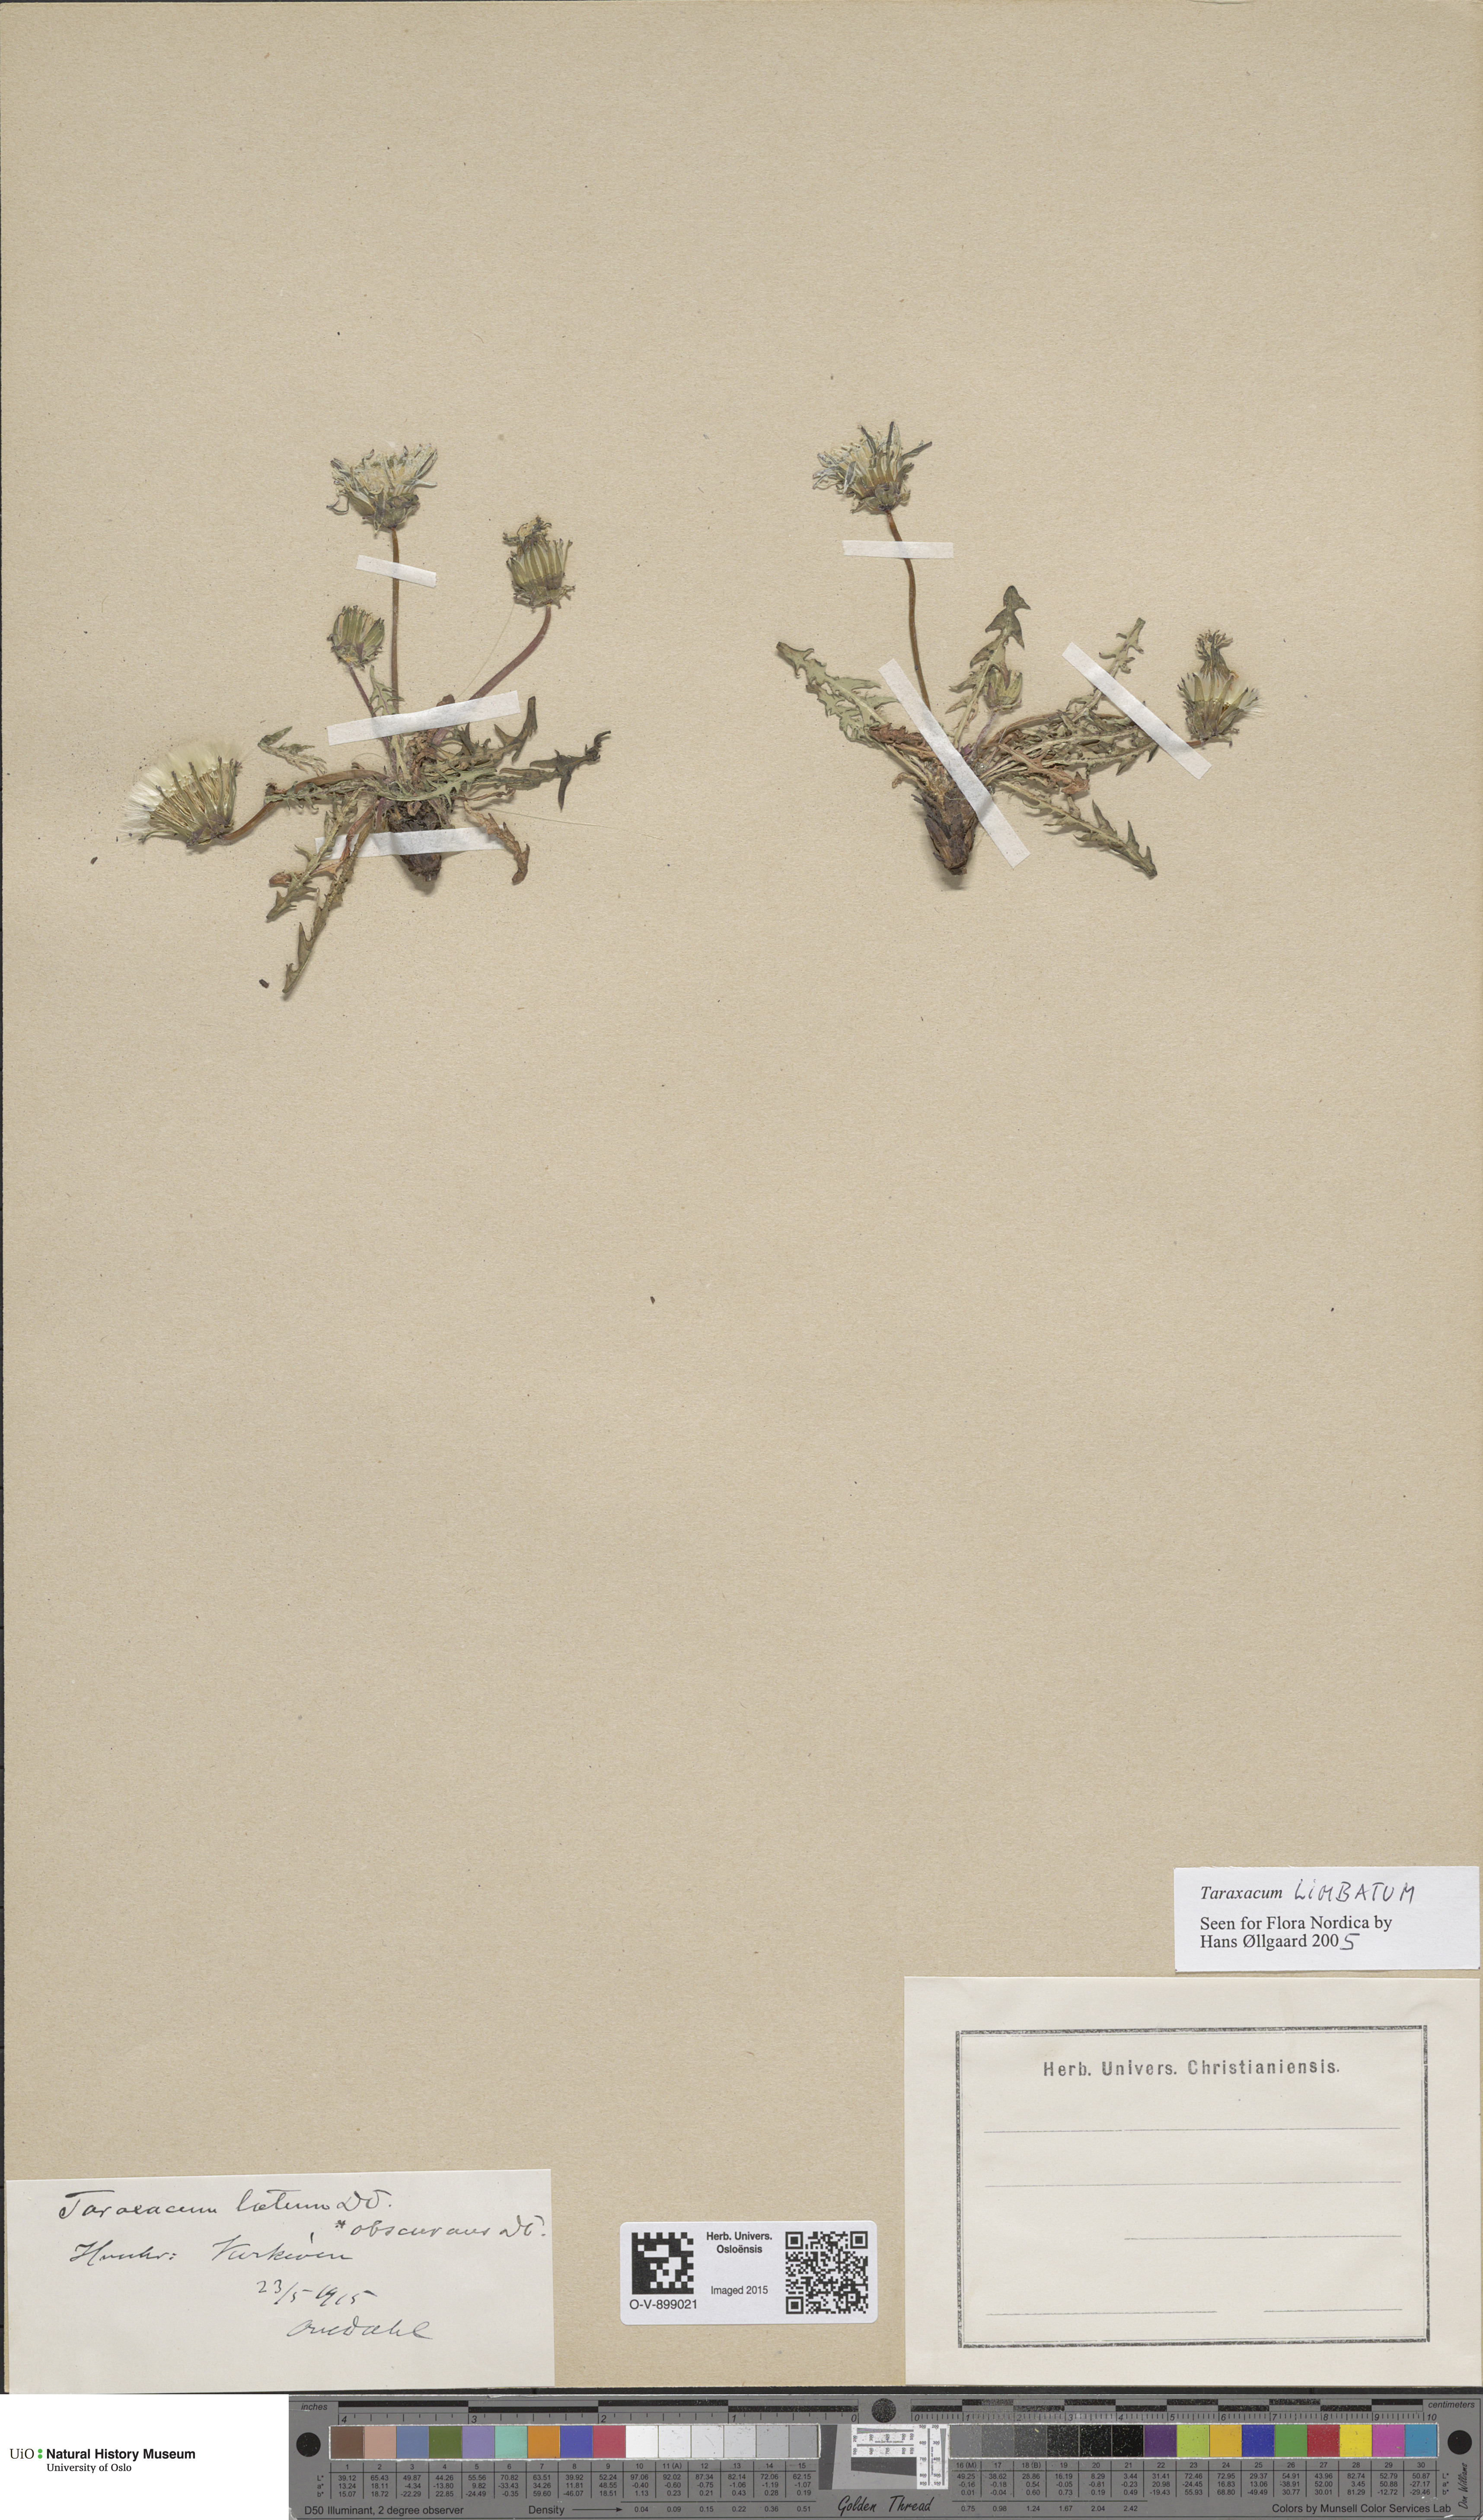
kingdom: Plantae
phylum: Tracheophyta
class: Magnoliopsida
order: Asterales
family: Asteraceae
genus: Taraxacum
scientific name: Taraxacum limbatum
